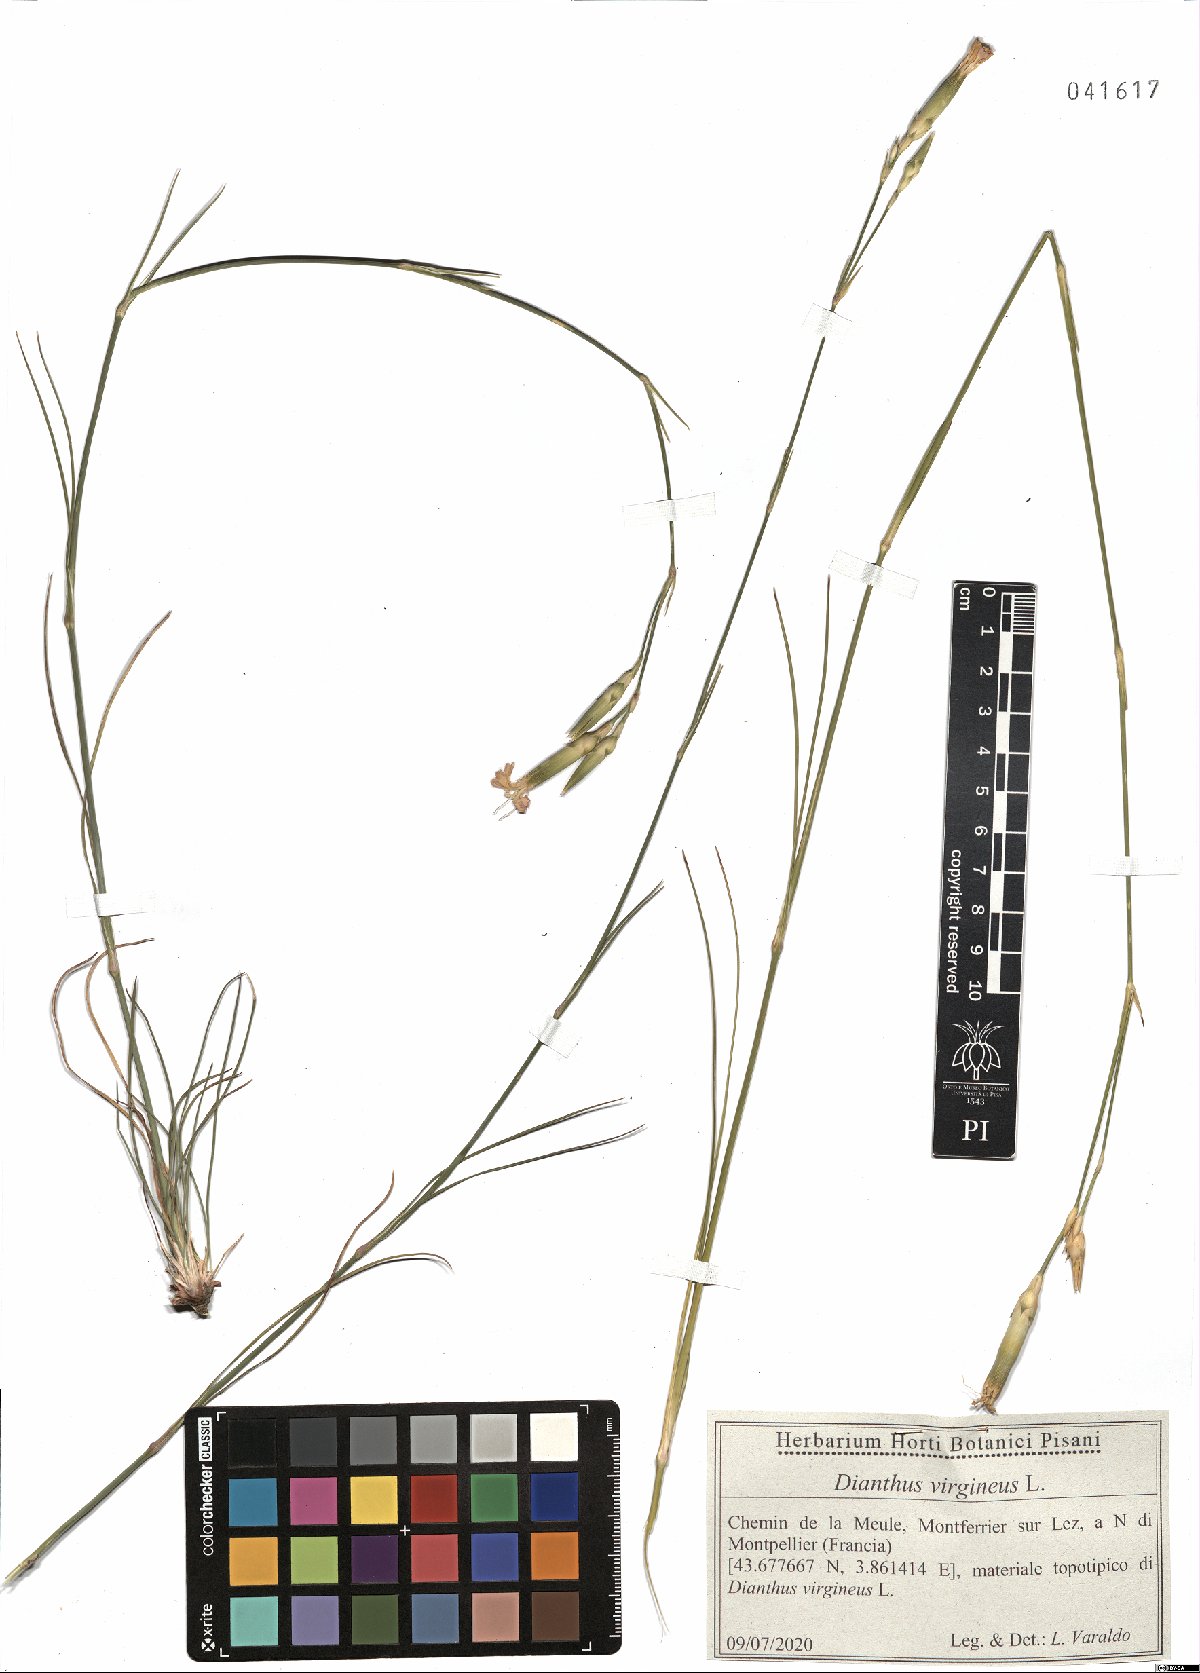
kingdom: Plantae
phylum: Tracheophyta
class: Magnoliopsida
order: Caryophyllales
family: Caryophyllaceae
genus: Dianthus
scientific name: Dianthus virgineus
